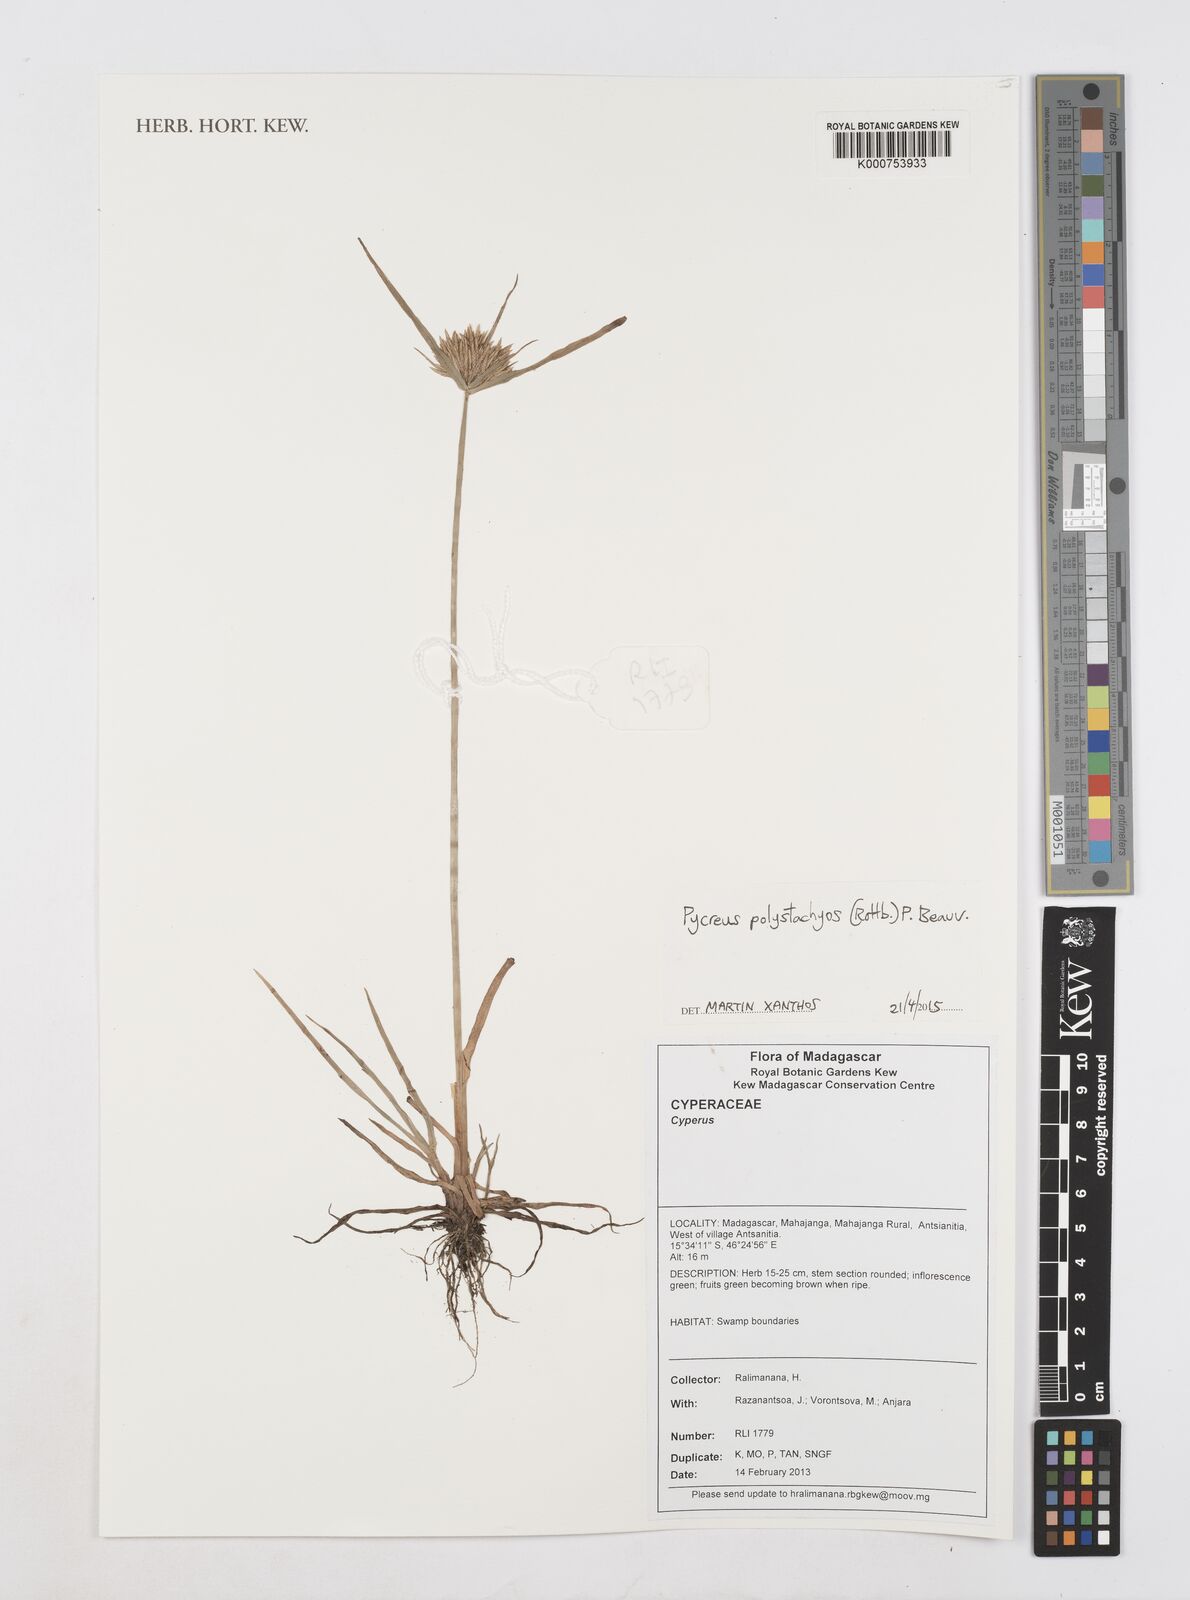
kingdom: Plantae
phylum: Tracheophyta
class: Liliopsida
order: Poales
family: Cyperaceae
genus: Cyperus
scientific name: Cyperus polystachyos
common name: Bunchy flat sedge
